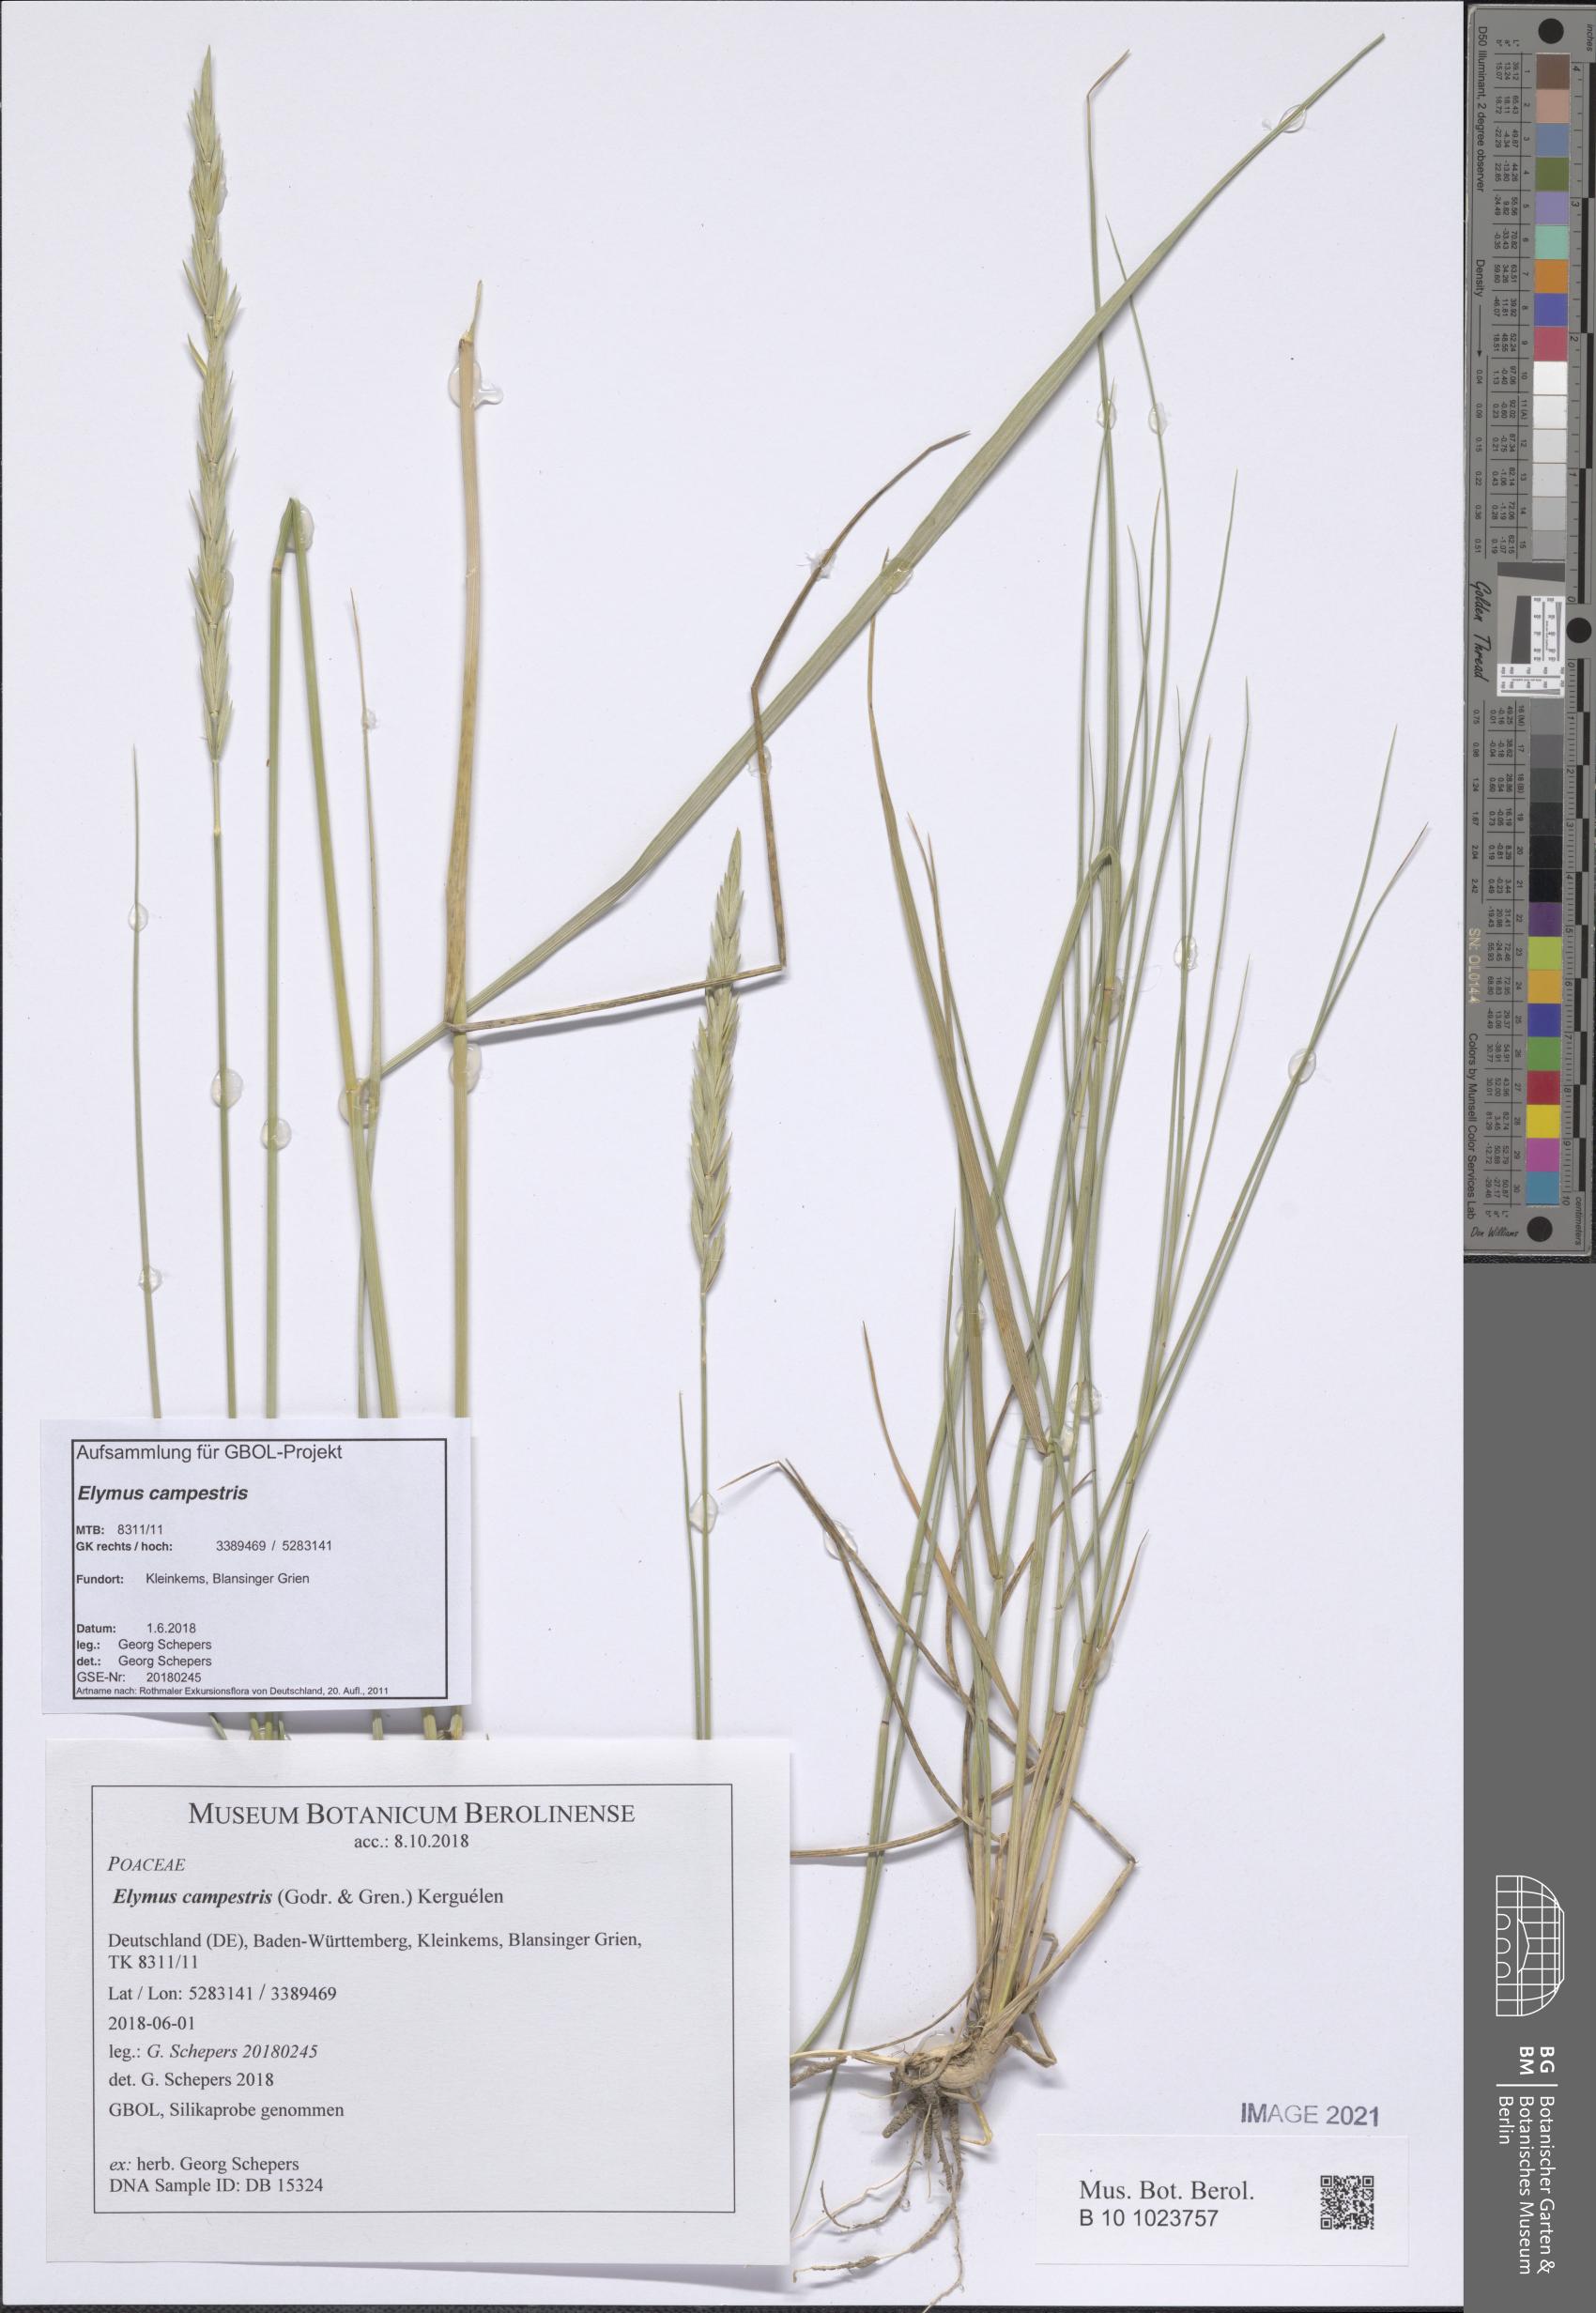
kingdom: Plantae
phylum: Tracheophyta
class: Liliopsida
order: Poales
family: Poaceae
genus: Elymus
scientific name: Elymus pungens
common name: Sea couch
